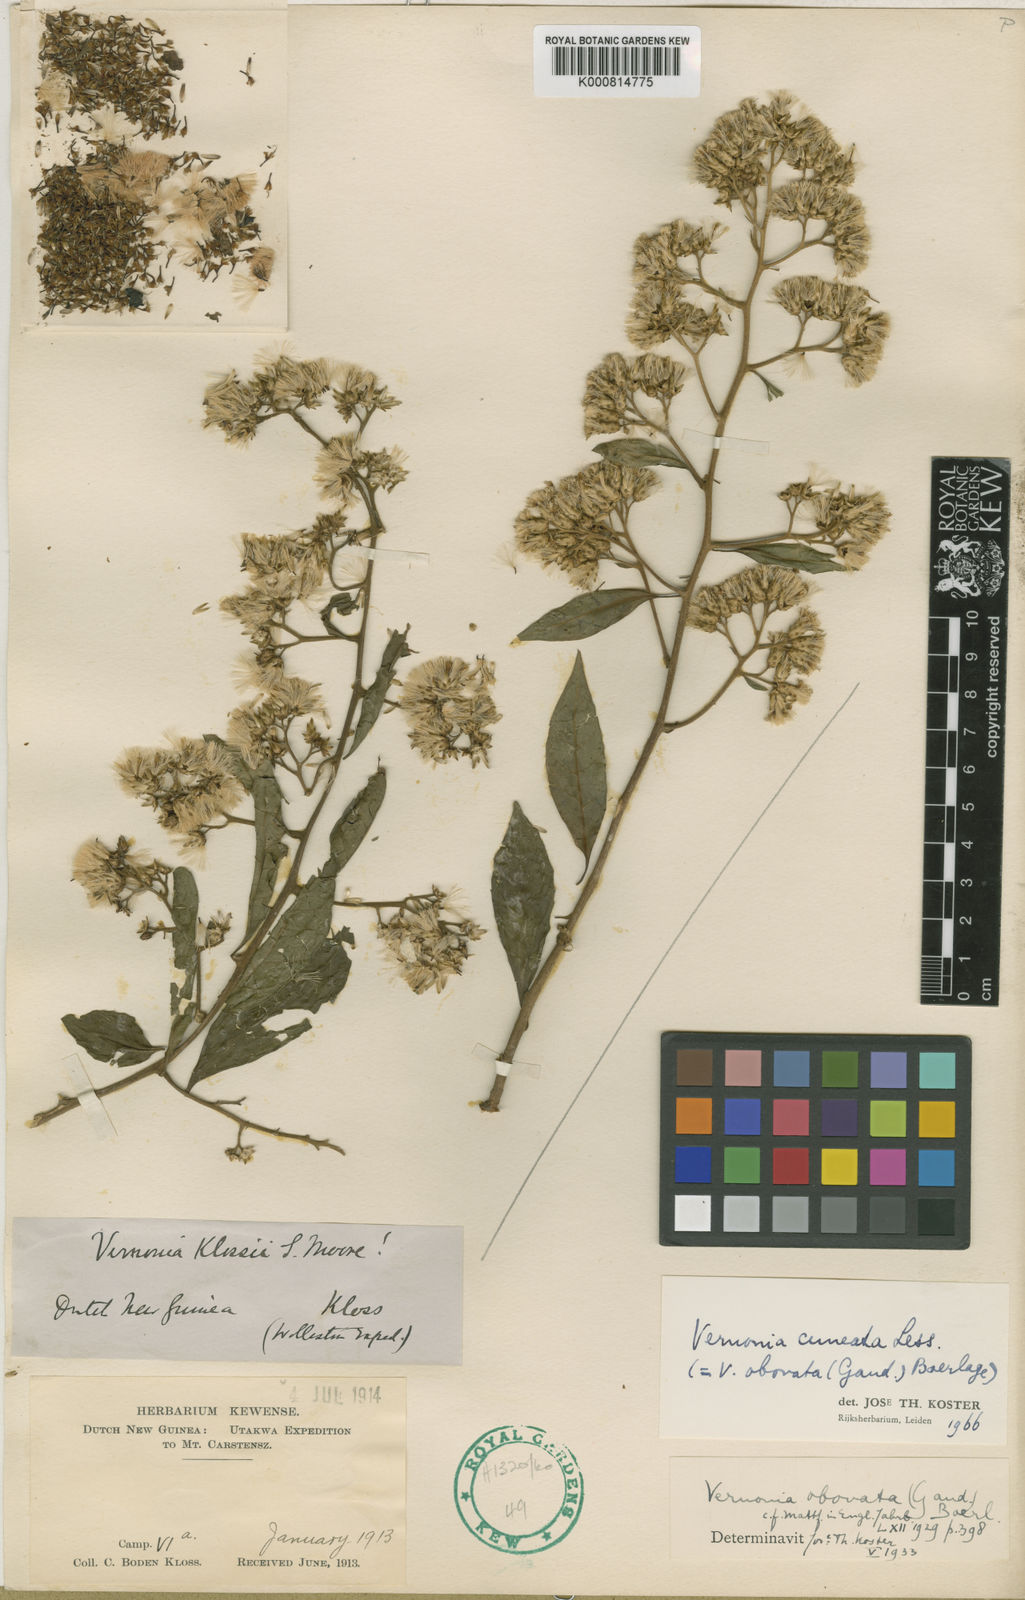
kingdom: Plantae
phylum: Tracheophyta
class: Magnoliopsida
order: Asterales
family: Asteraceae
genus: Decaneuropsis
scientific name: Decaneuropsis obovata
